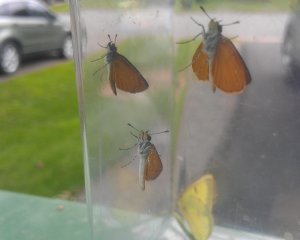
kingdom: Animalia
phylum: Arthropoda
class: Insecta
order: Lepidoptera
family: Hesperiidae
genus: Ancyloxypha
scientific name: Ancyloxypha numitor
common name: Least Skipper
